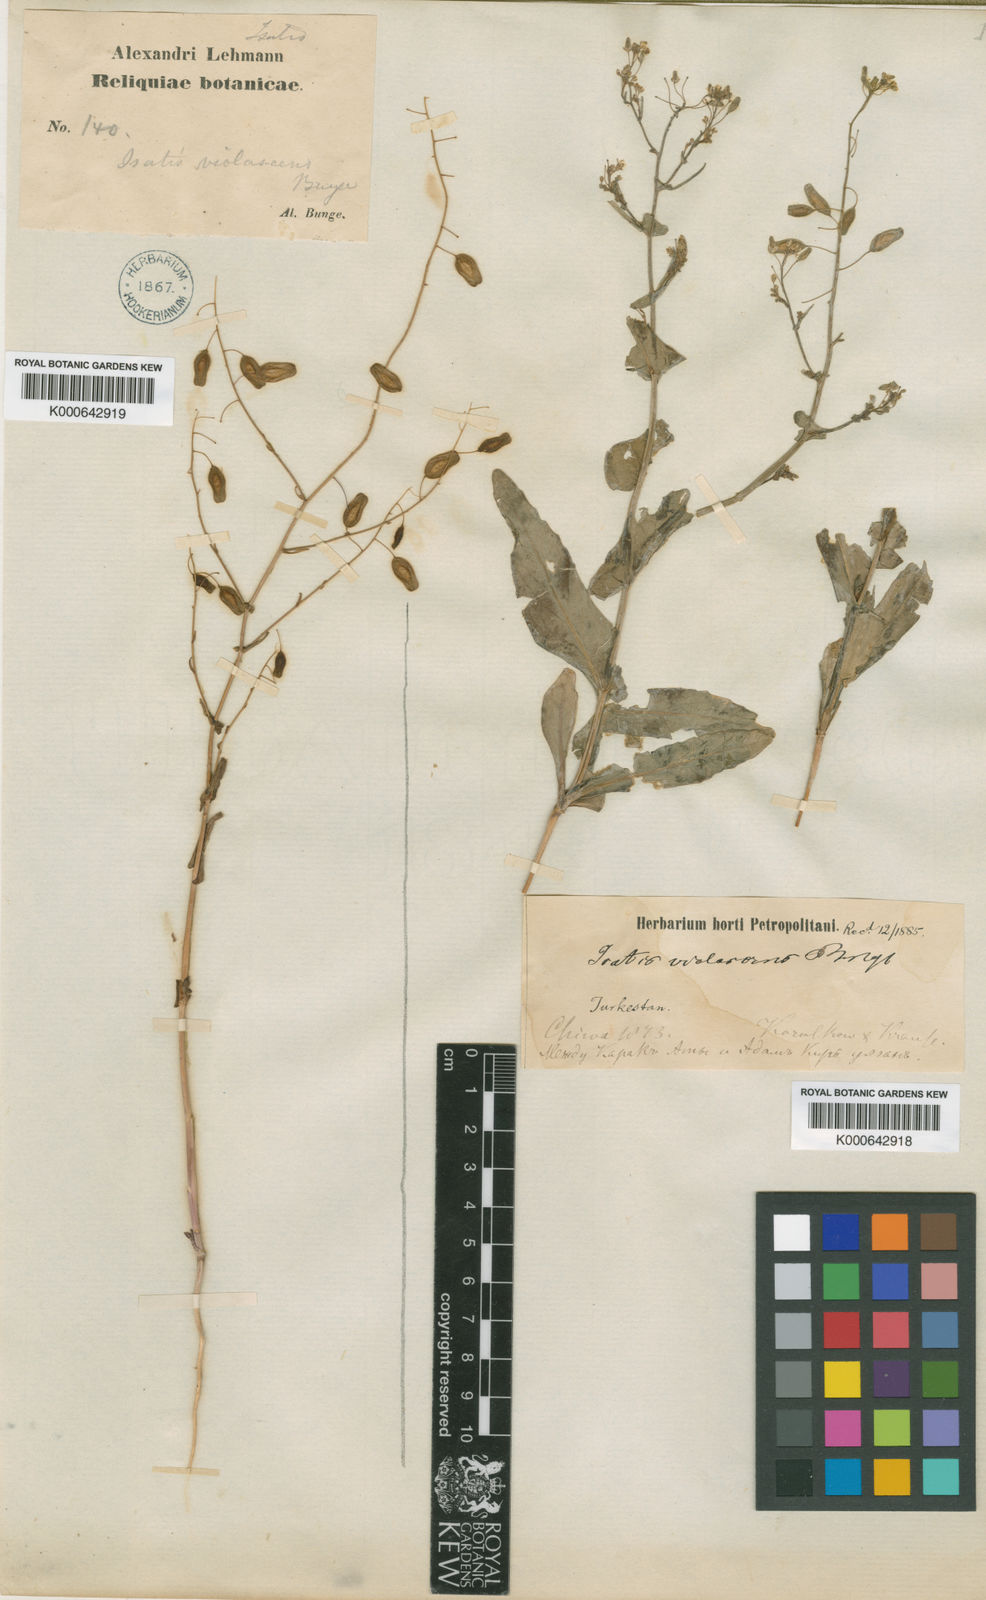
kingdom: Plantae
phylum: Tracheophyta
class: Magnoliopsida
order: Brassicales
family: Brassicaceae
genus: Isatis
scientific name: Isatis violascens
